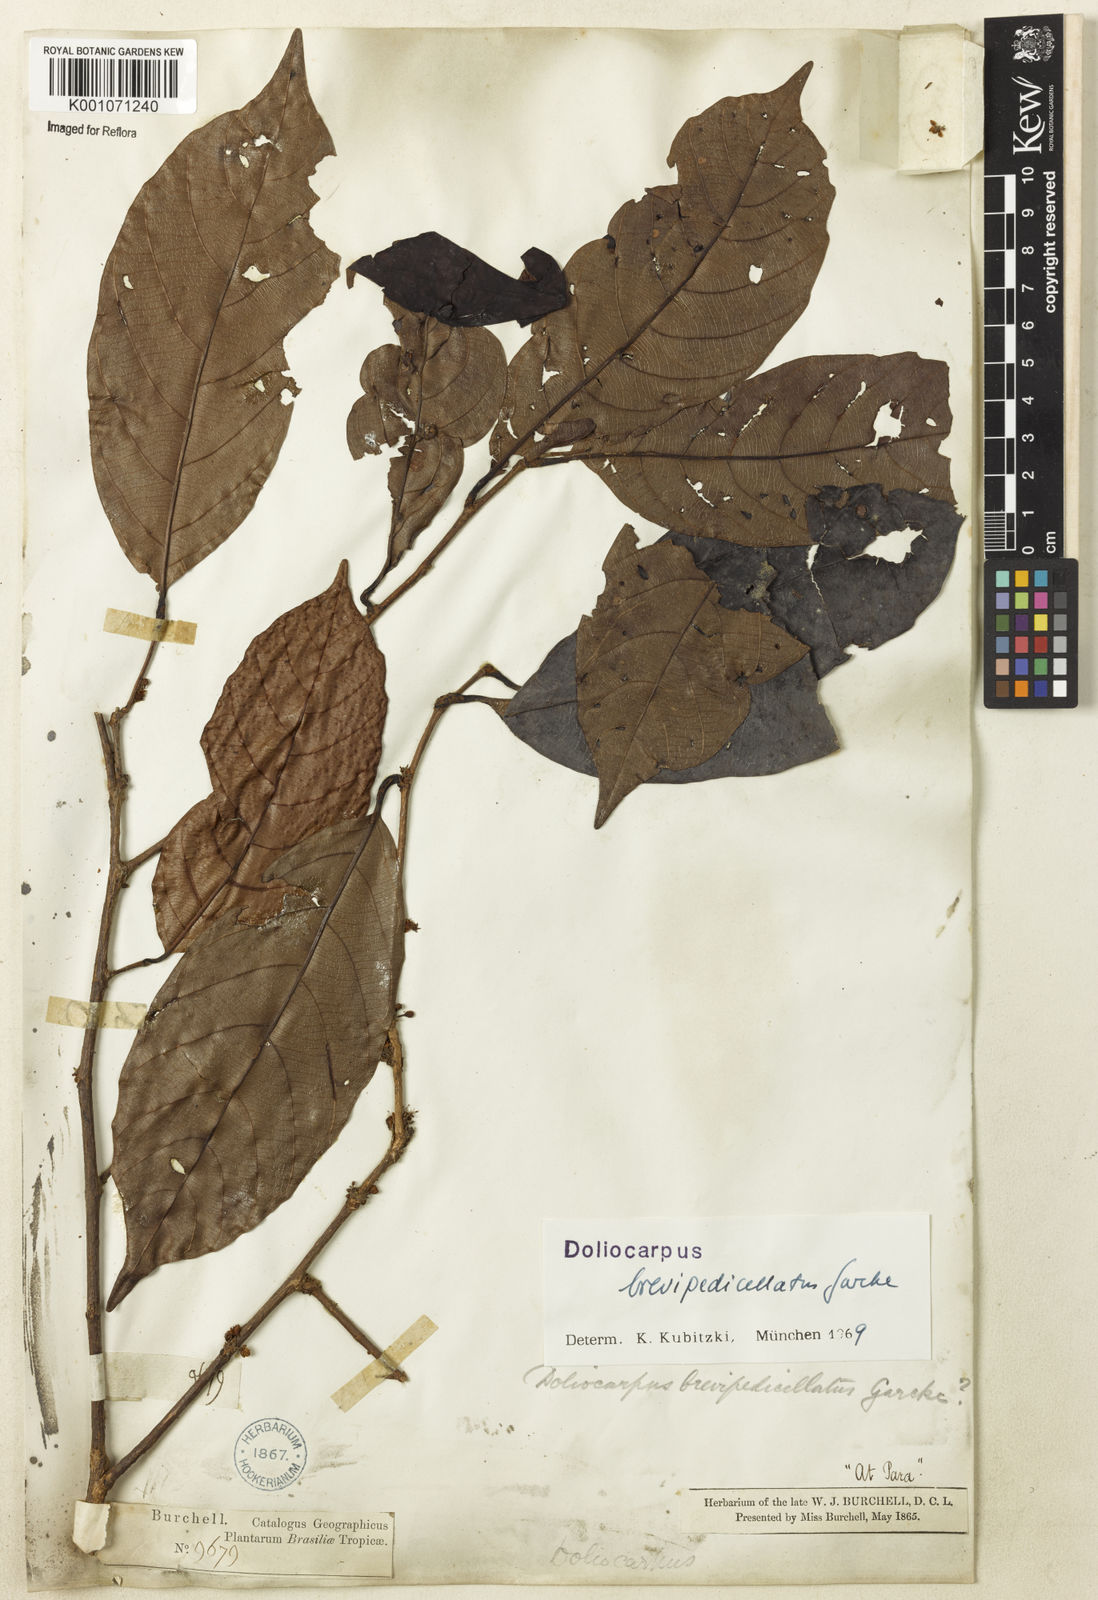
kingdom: Plantae
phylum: Tracheophyta
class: Magnoliopsida
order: Dilleniales
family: Dilleniaceae
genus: Doliocarpus
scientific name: Doliocarpus brevipedicellatus
